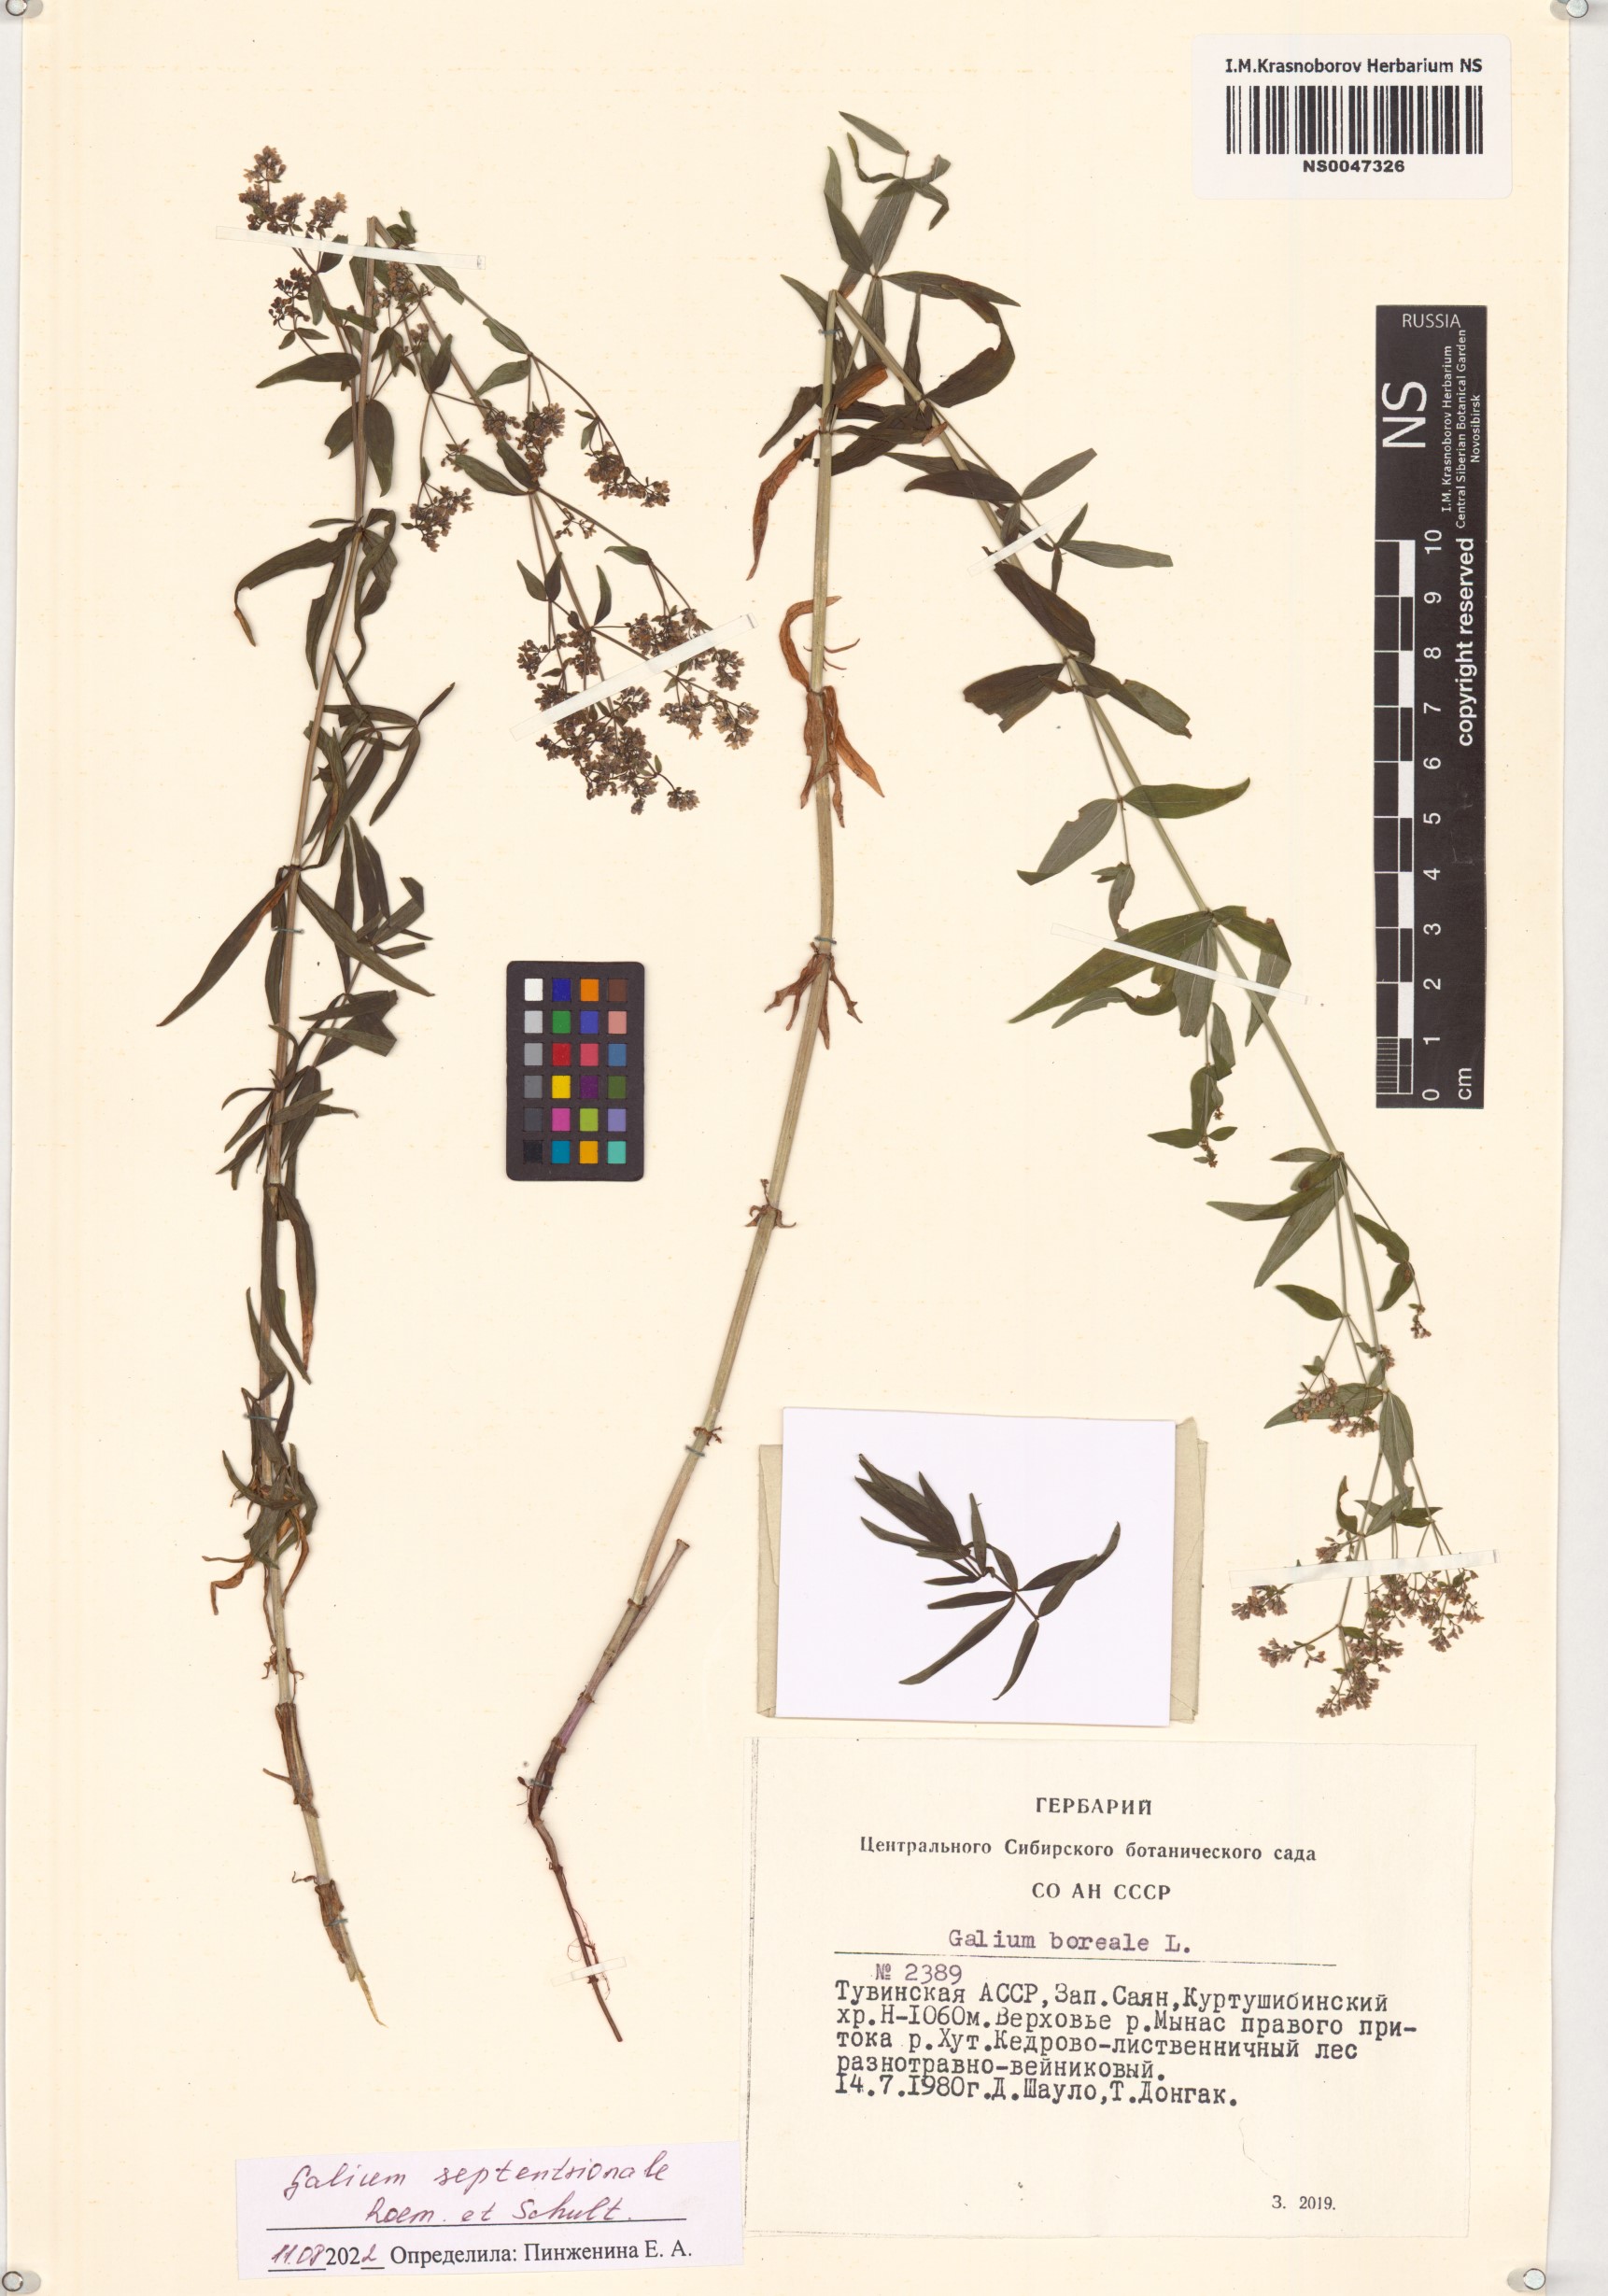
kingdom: Plantae
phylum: Tracheophyta
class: Magnoliopsida
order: Gentianales
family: Rubiaceae
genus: Galium
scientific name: Galium boreale
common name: Northern bedstraw
